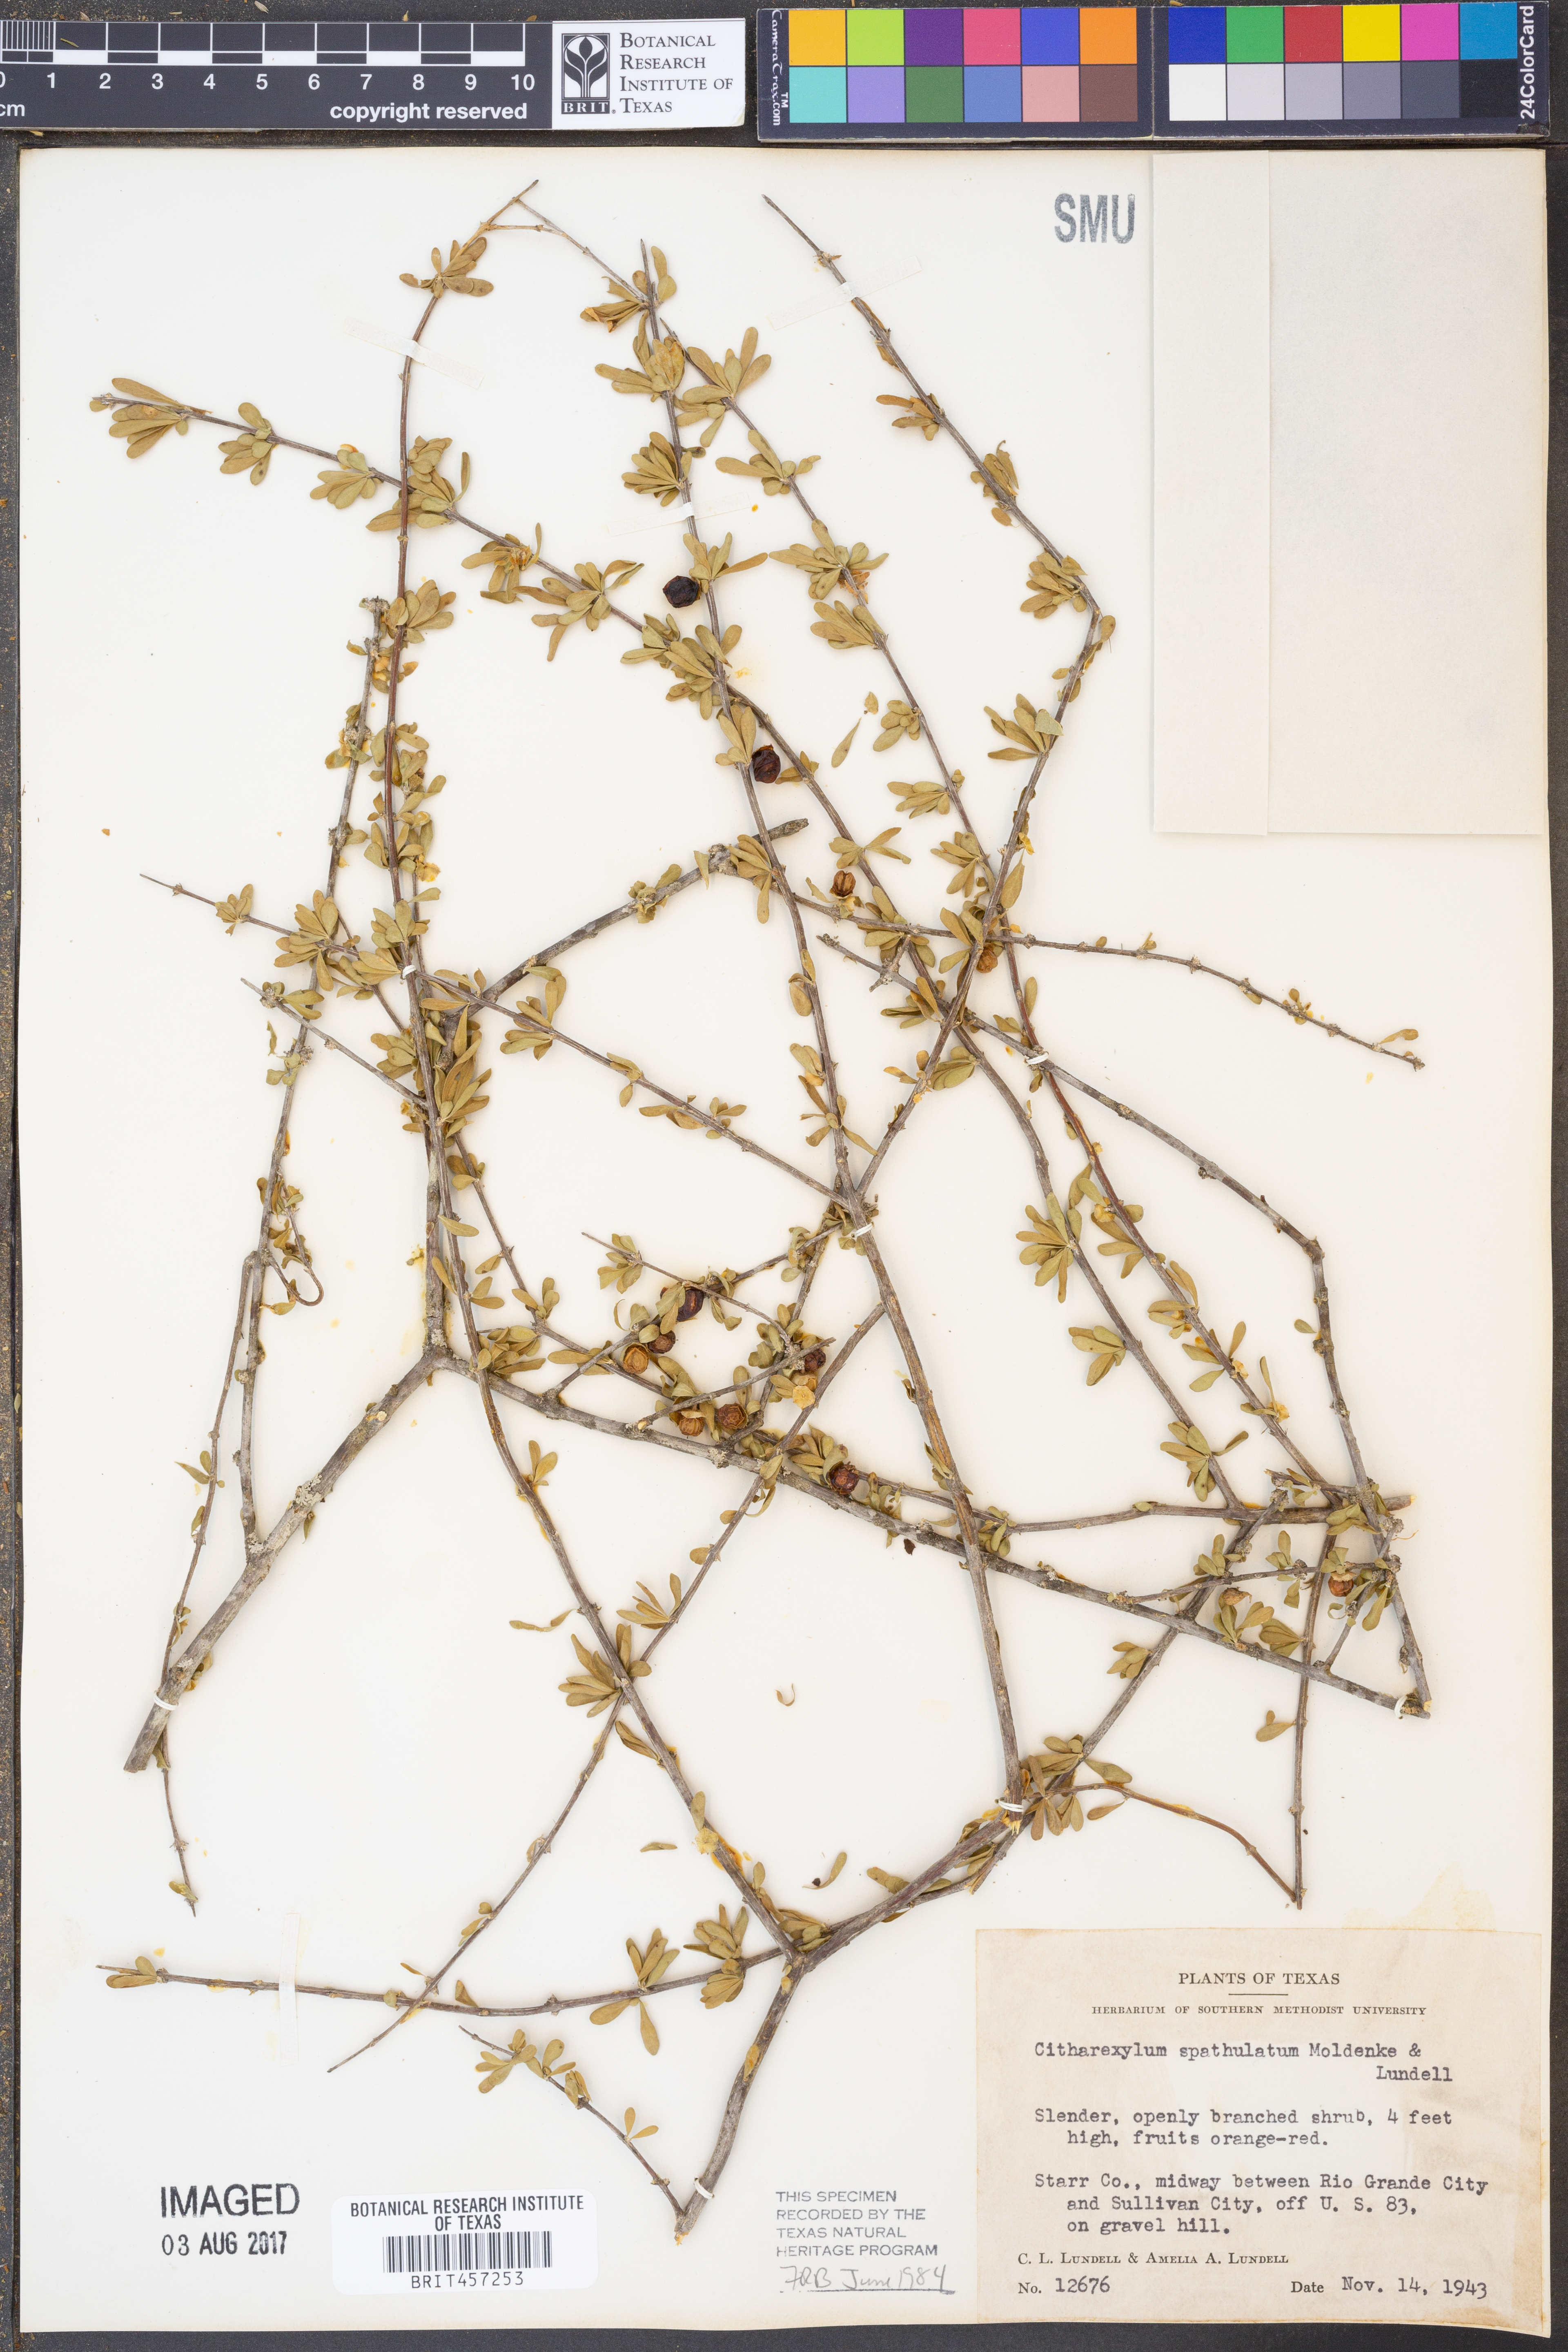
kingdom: Plantae
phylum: Tracheophyta
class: Magnoliopsida
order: Lamiales
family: Verbenaceae
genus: Citharexylum
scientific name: Citharexylum brachyanthum
